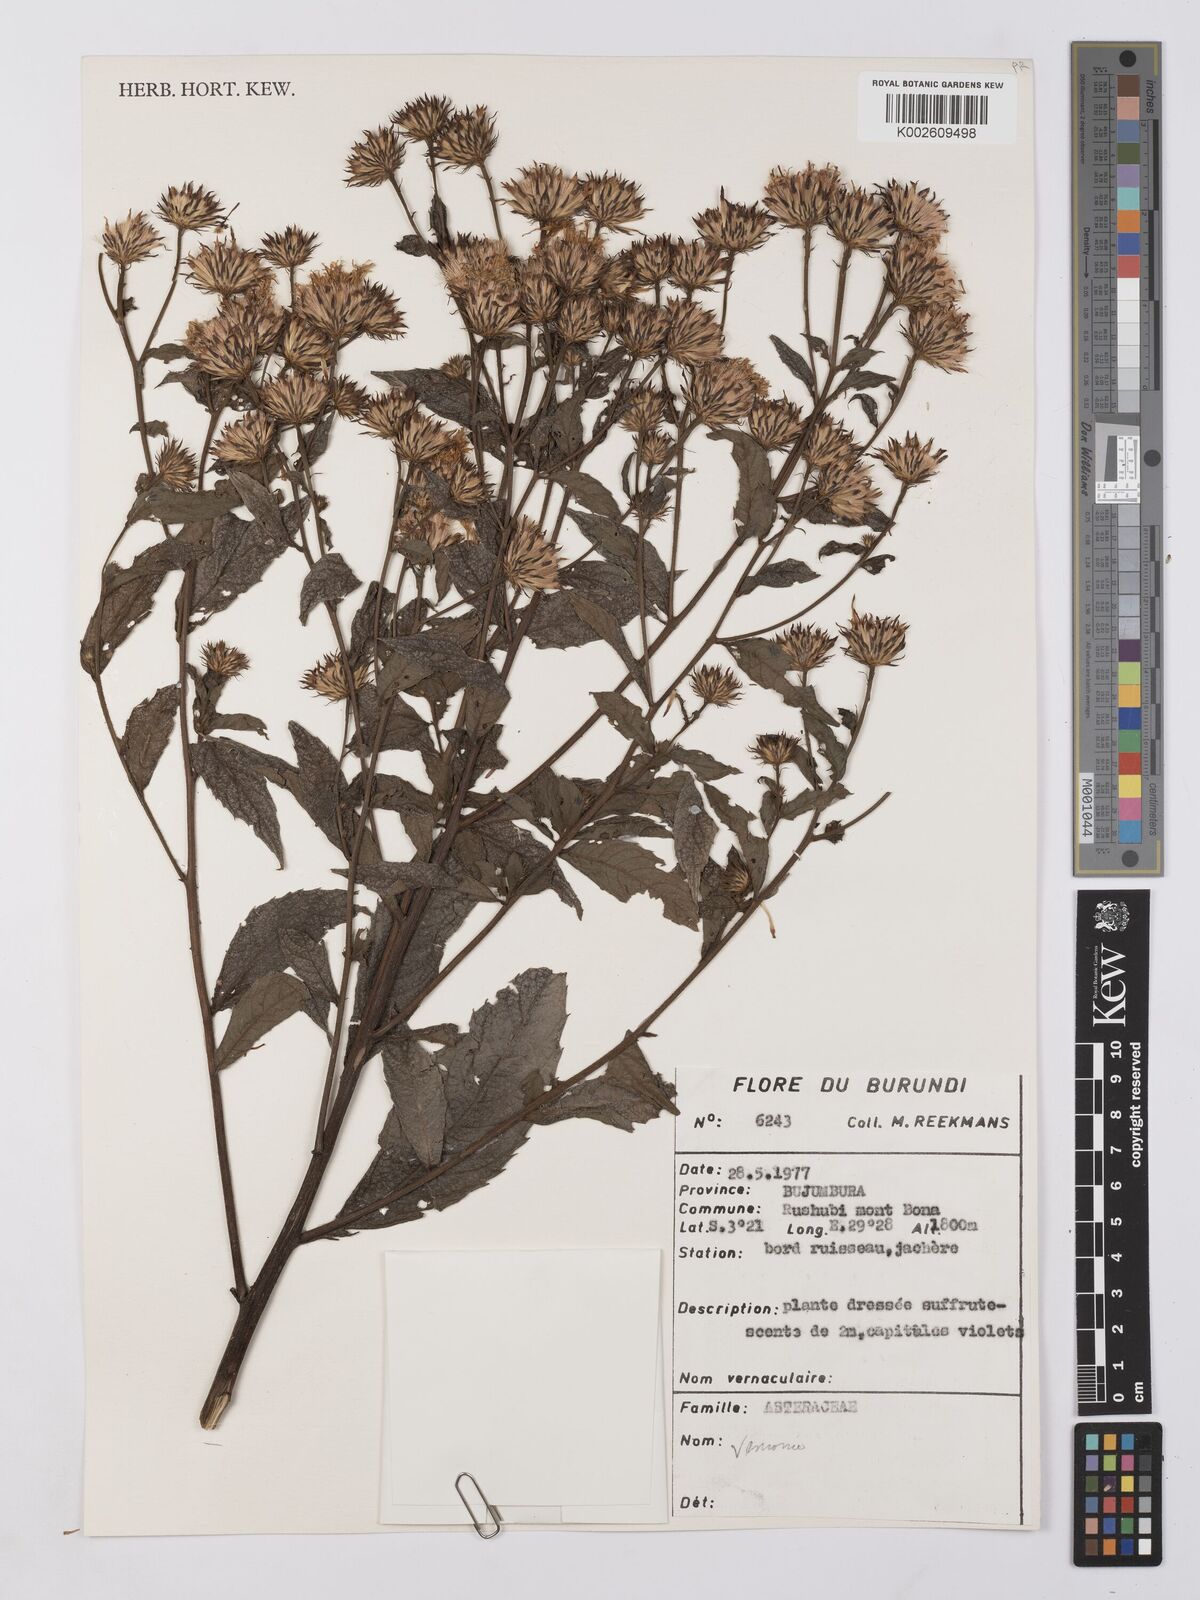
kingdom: Plantae
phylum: Tracheophyta
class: Magnoliopsida
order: Asterales
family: Asteraceae
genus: Vernonia
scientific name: Vernonia
